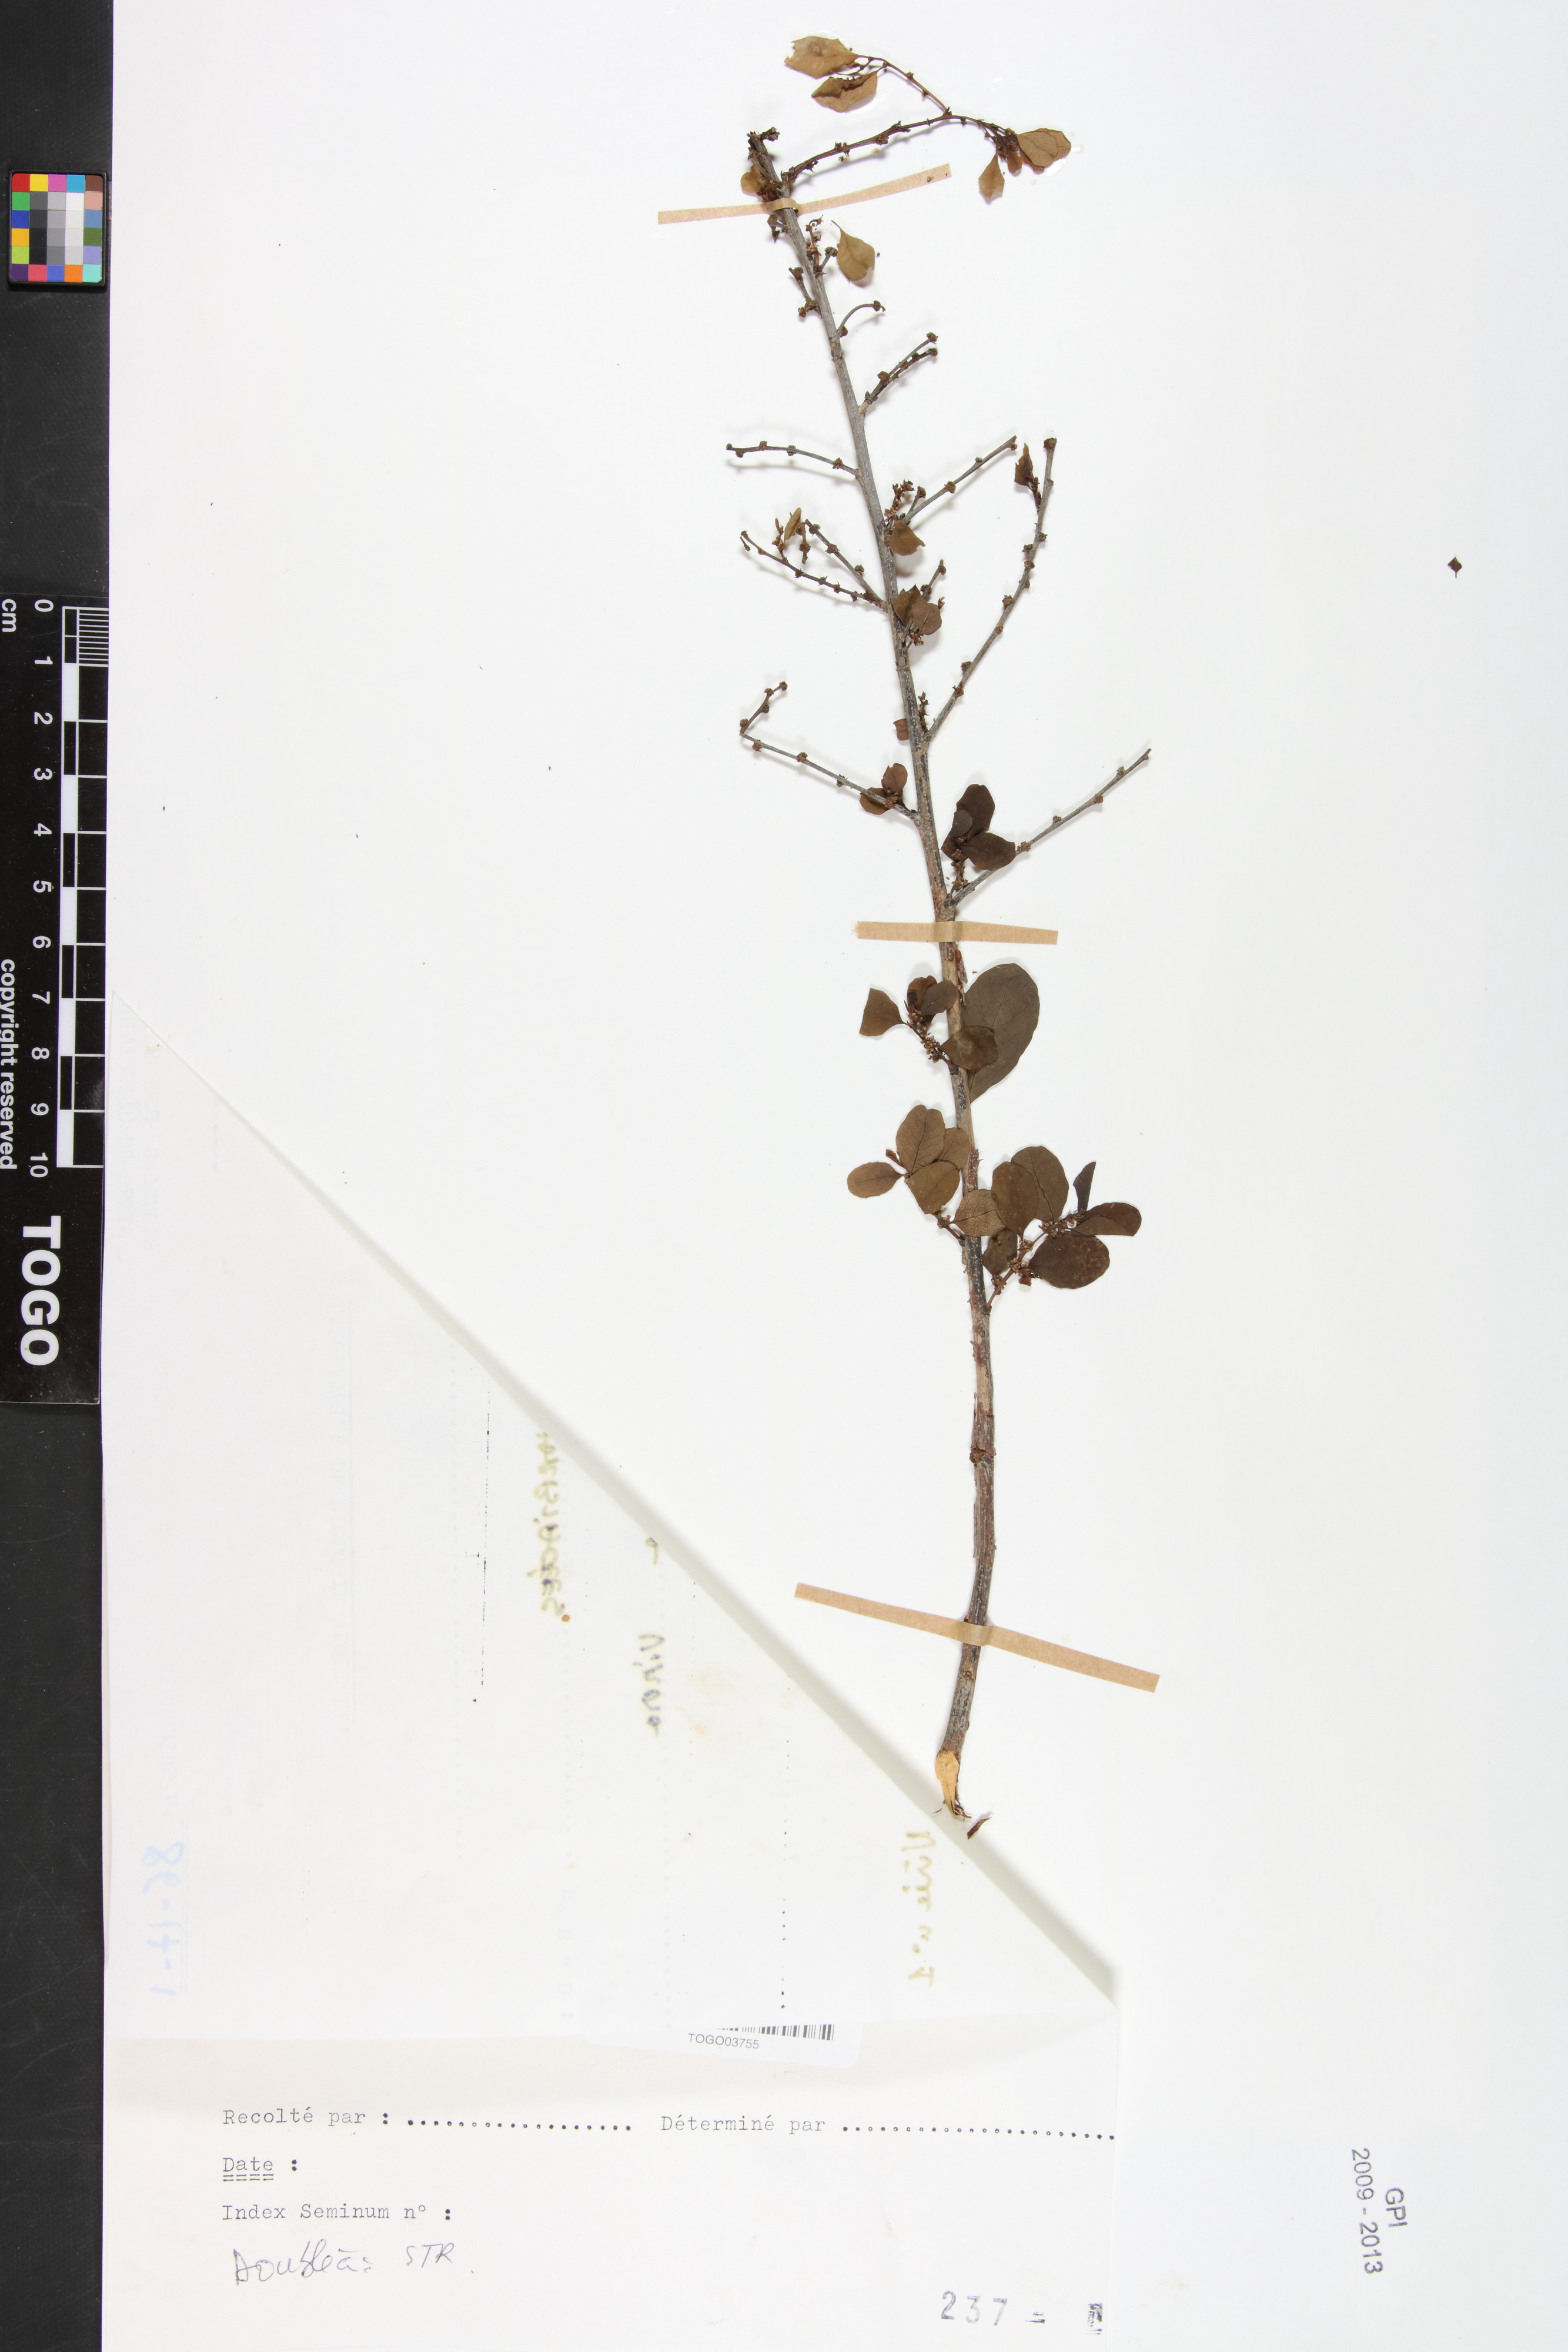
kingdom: Plantae
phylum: Tracheophyta
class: Magnoliopsida
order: Malpighiales
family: Phyllanthaceae
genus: Flueggea
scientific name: Flueggea virosa
